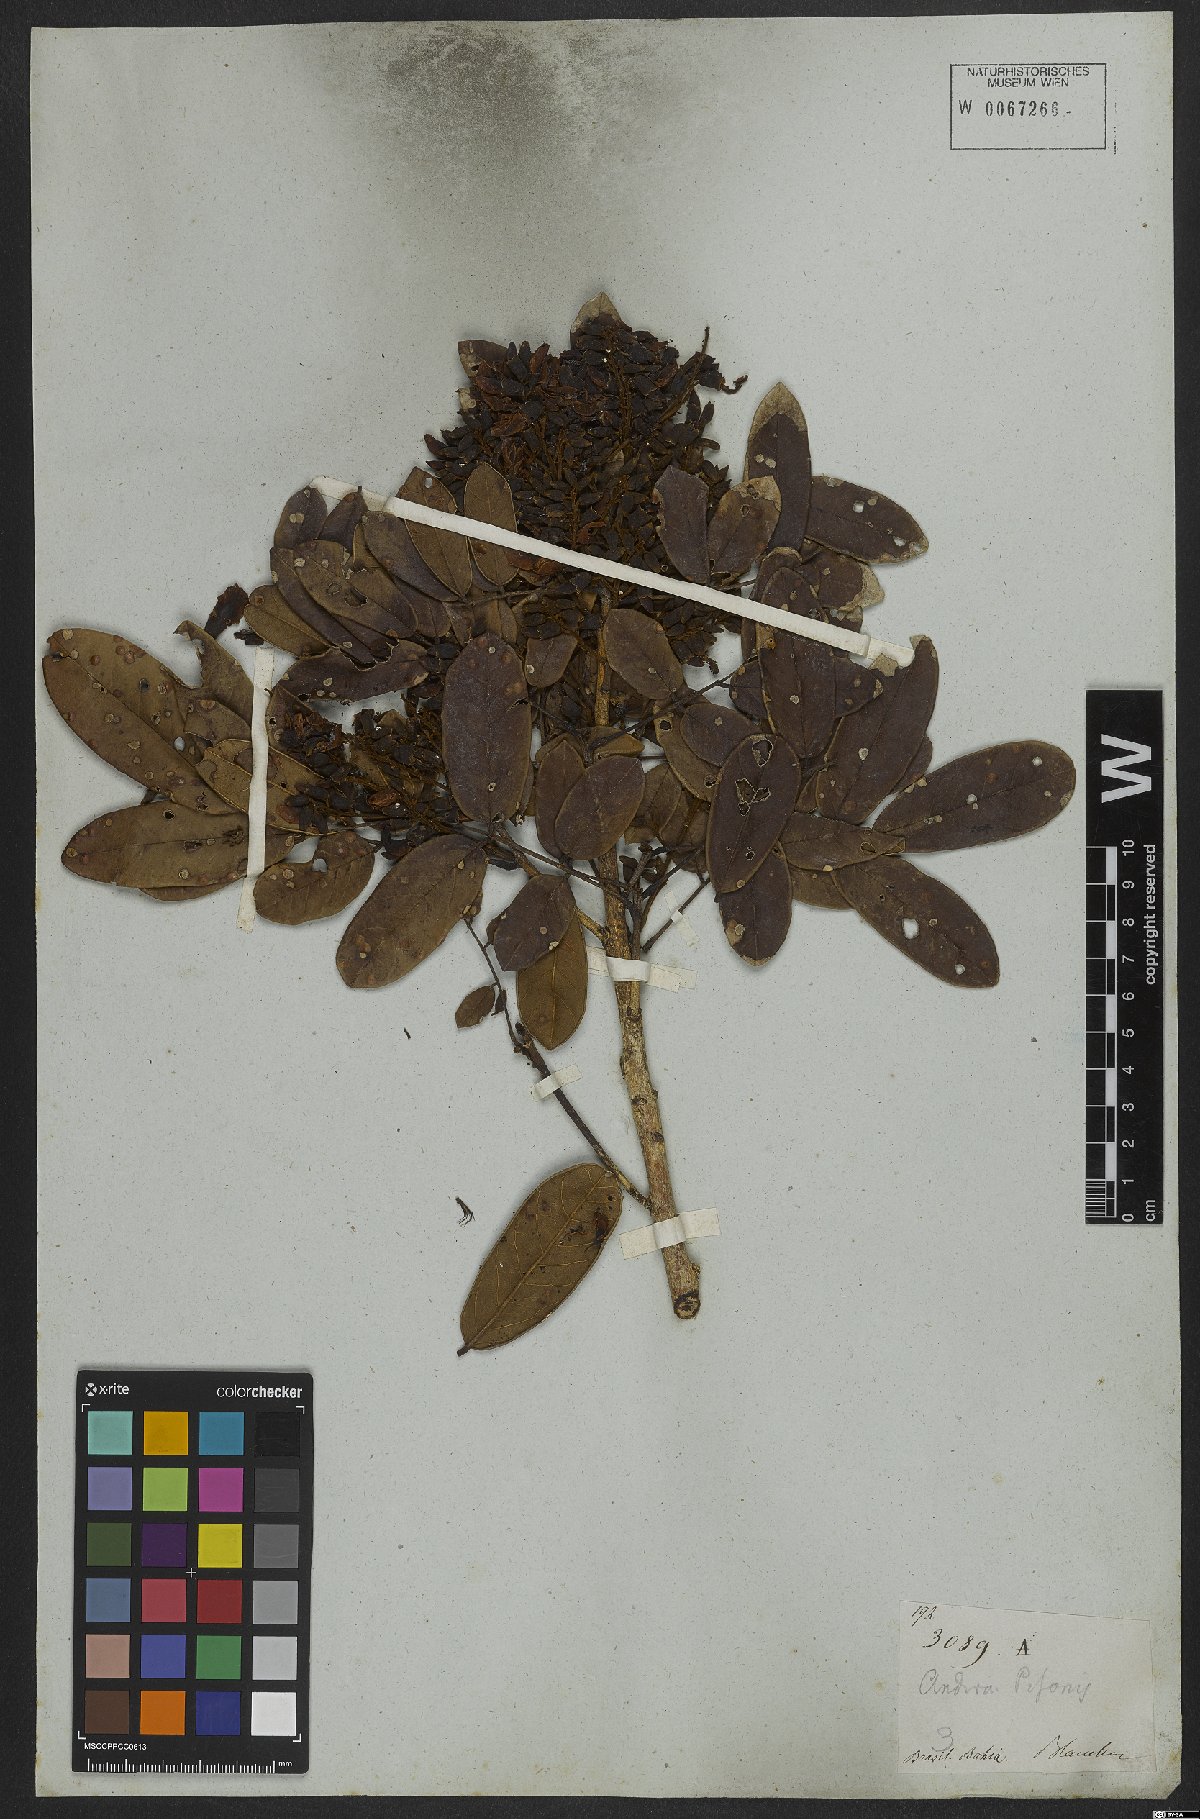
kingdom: Plantae
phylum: Tracheophyta
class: Magnoliopsida
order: Fabales
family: Fabaceae
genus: Andira
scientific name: Andira fraxinifolia
